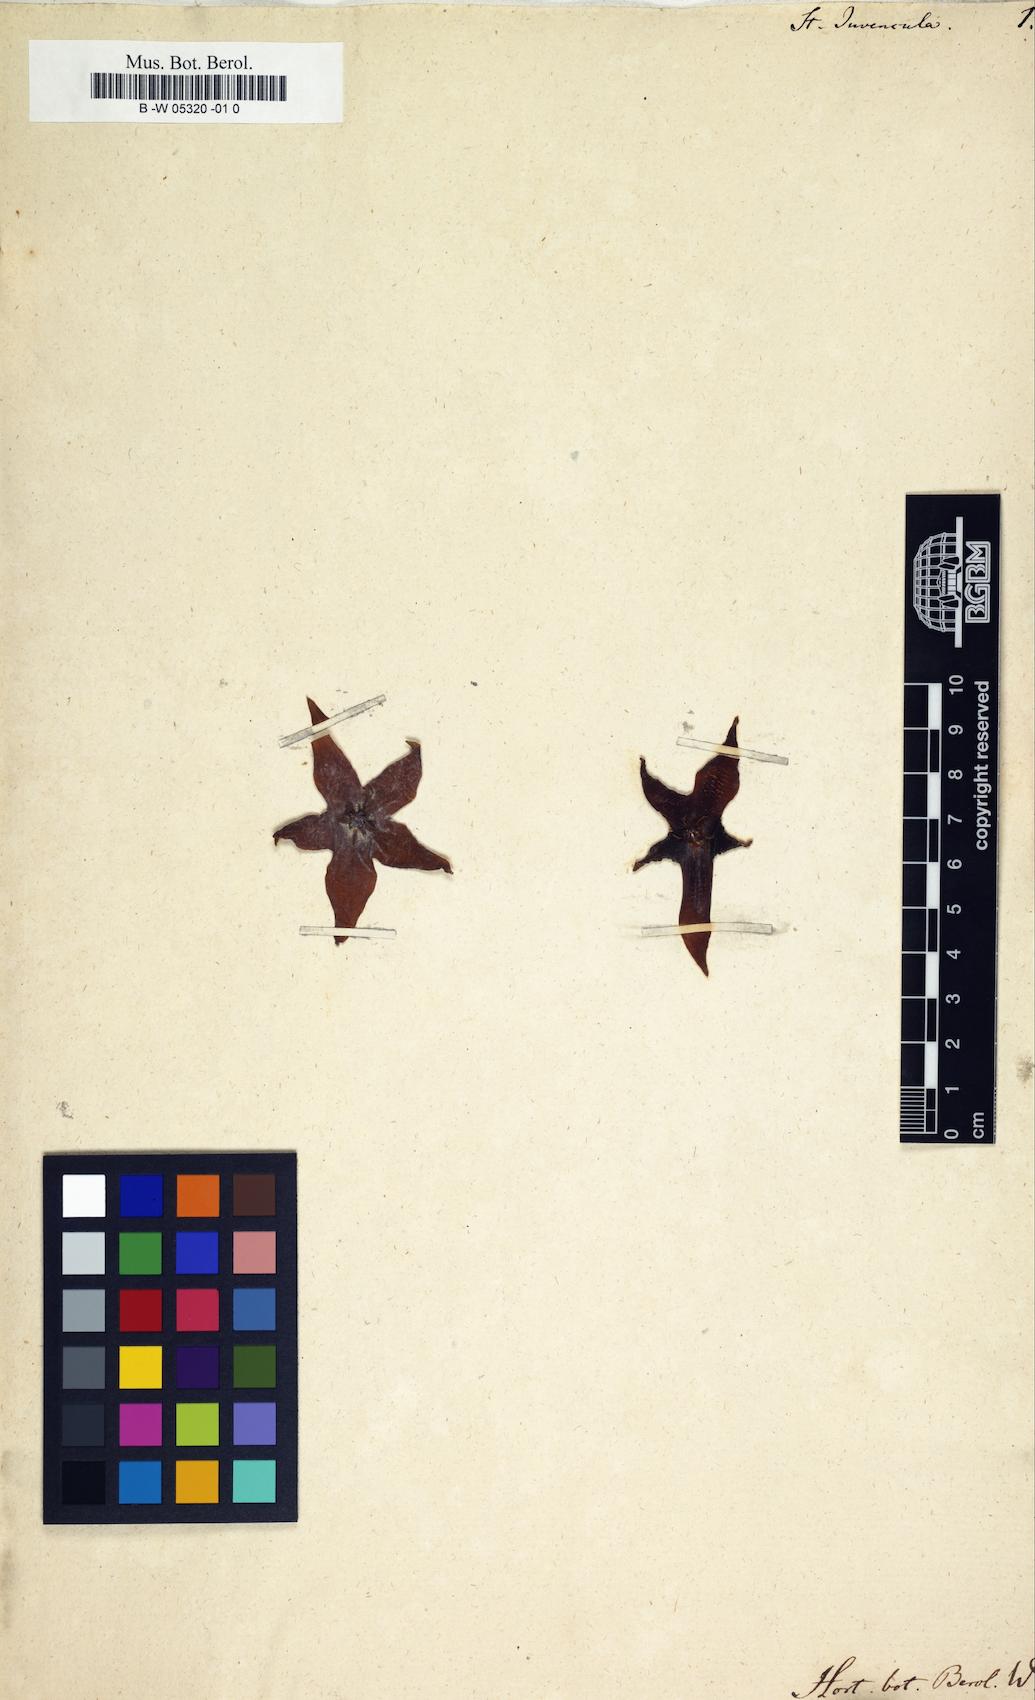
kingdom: Plantae
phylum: Tracheophyta
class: Magnoliopsida
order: Gentianales
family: Apocynaceae
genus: Ceropegia
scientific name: Ceropegia pulvinata
